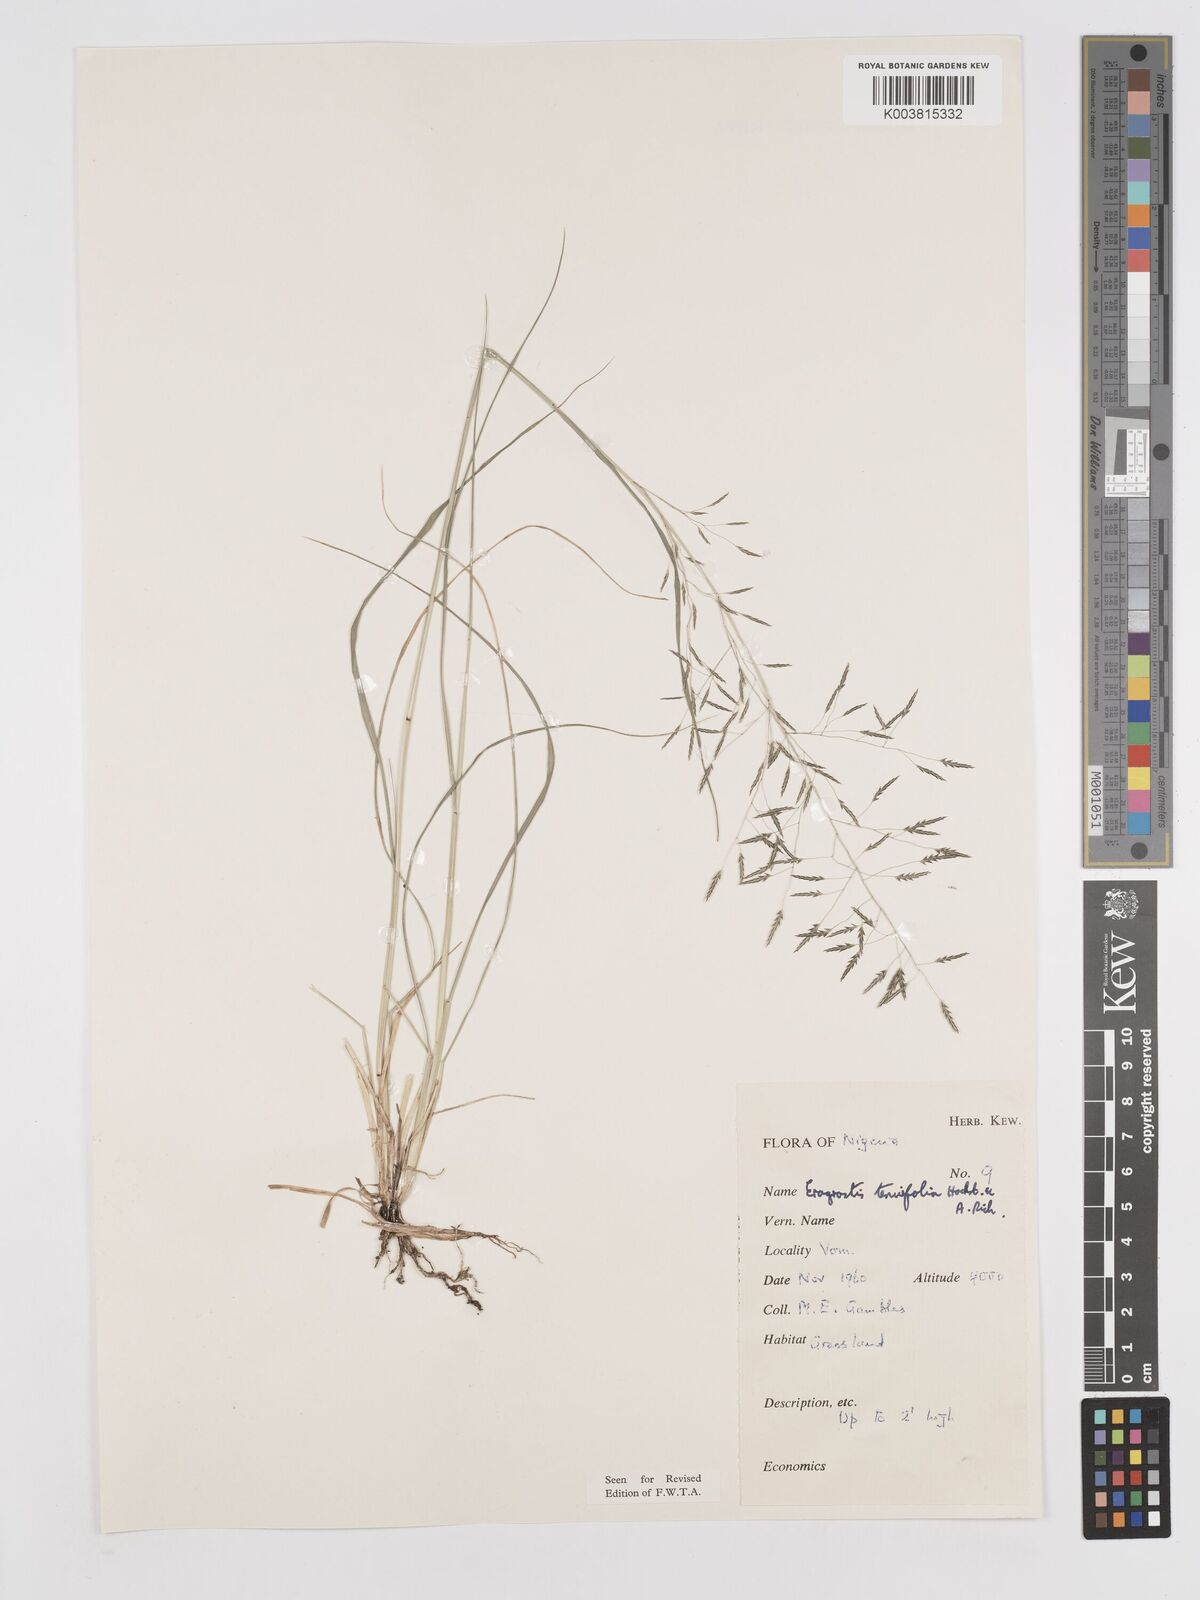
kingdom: Plantae
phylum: Tracheophyta
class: Liliopsida
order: Poales
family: Poaceae
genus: Eragrostis
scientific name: Eragrostis tenuifolia
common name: Elastic grass
